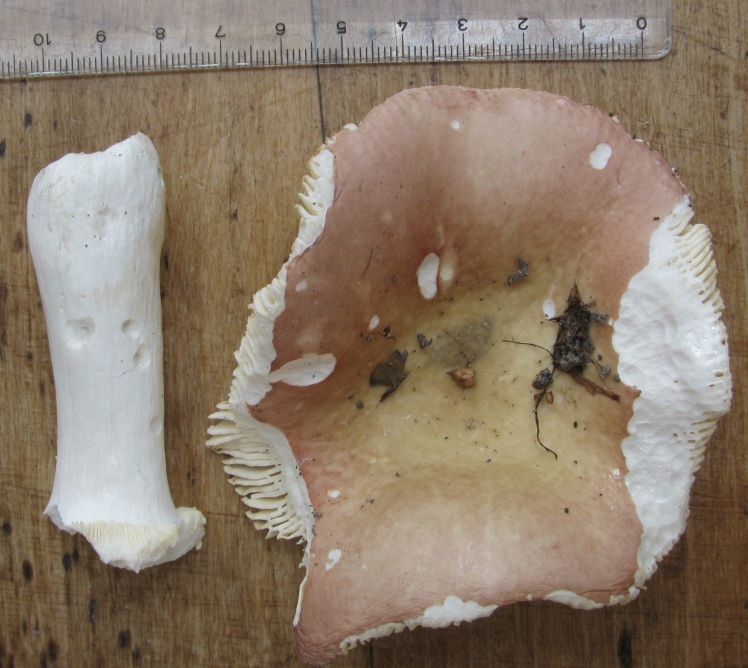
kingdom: Fungi
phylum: Basidiomycota
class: Agaricomycetes
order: Russulales
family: Russulaceae
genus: Russula
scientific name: Russula veternosa
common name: blødkødet skørhat
